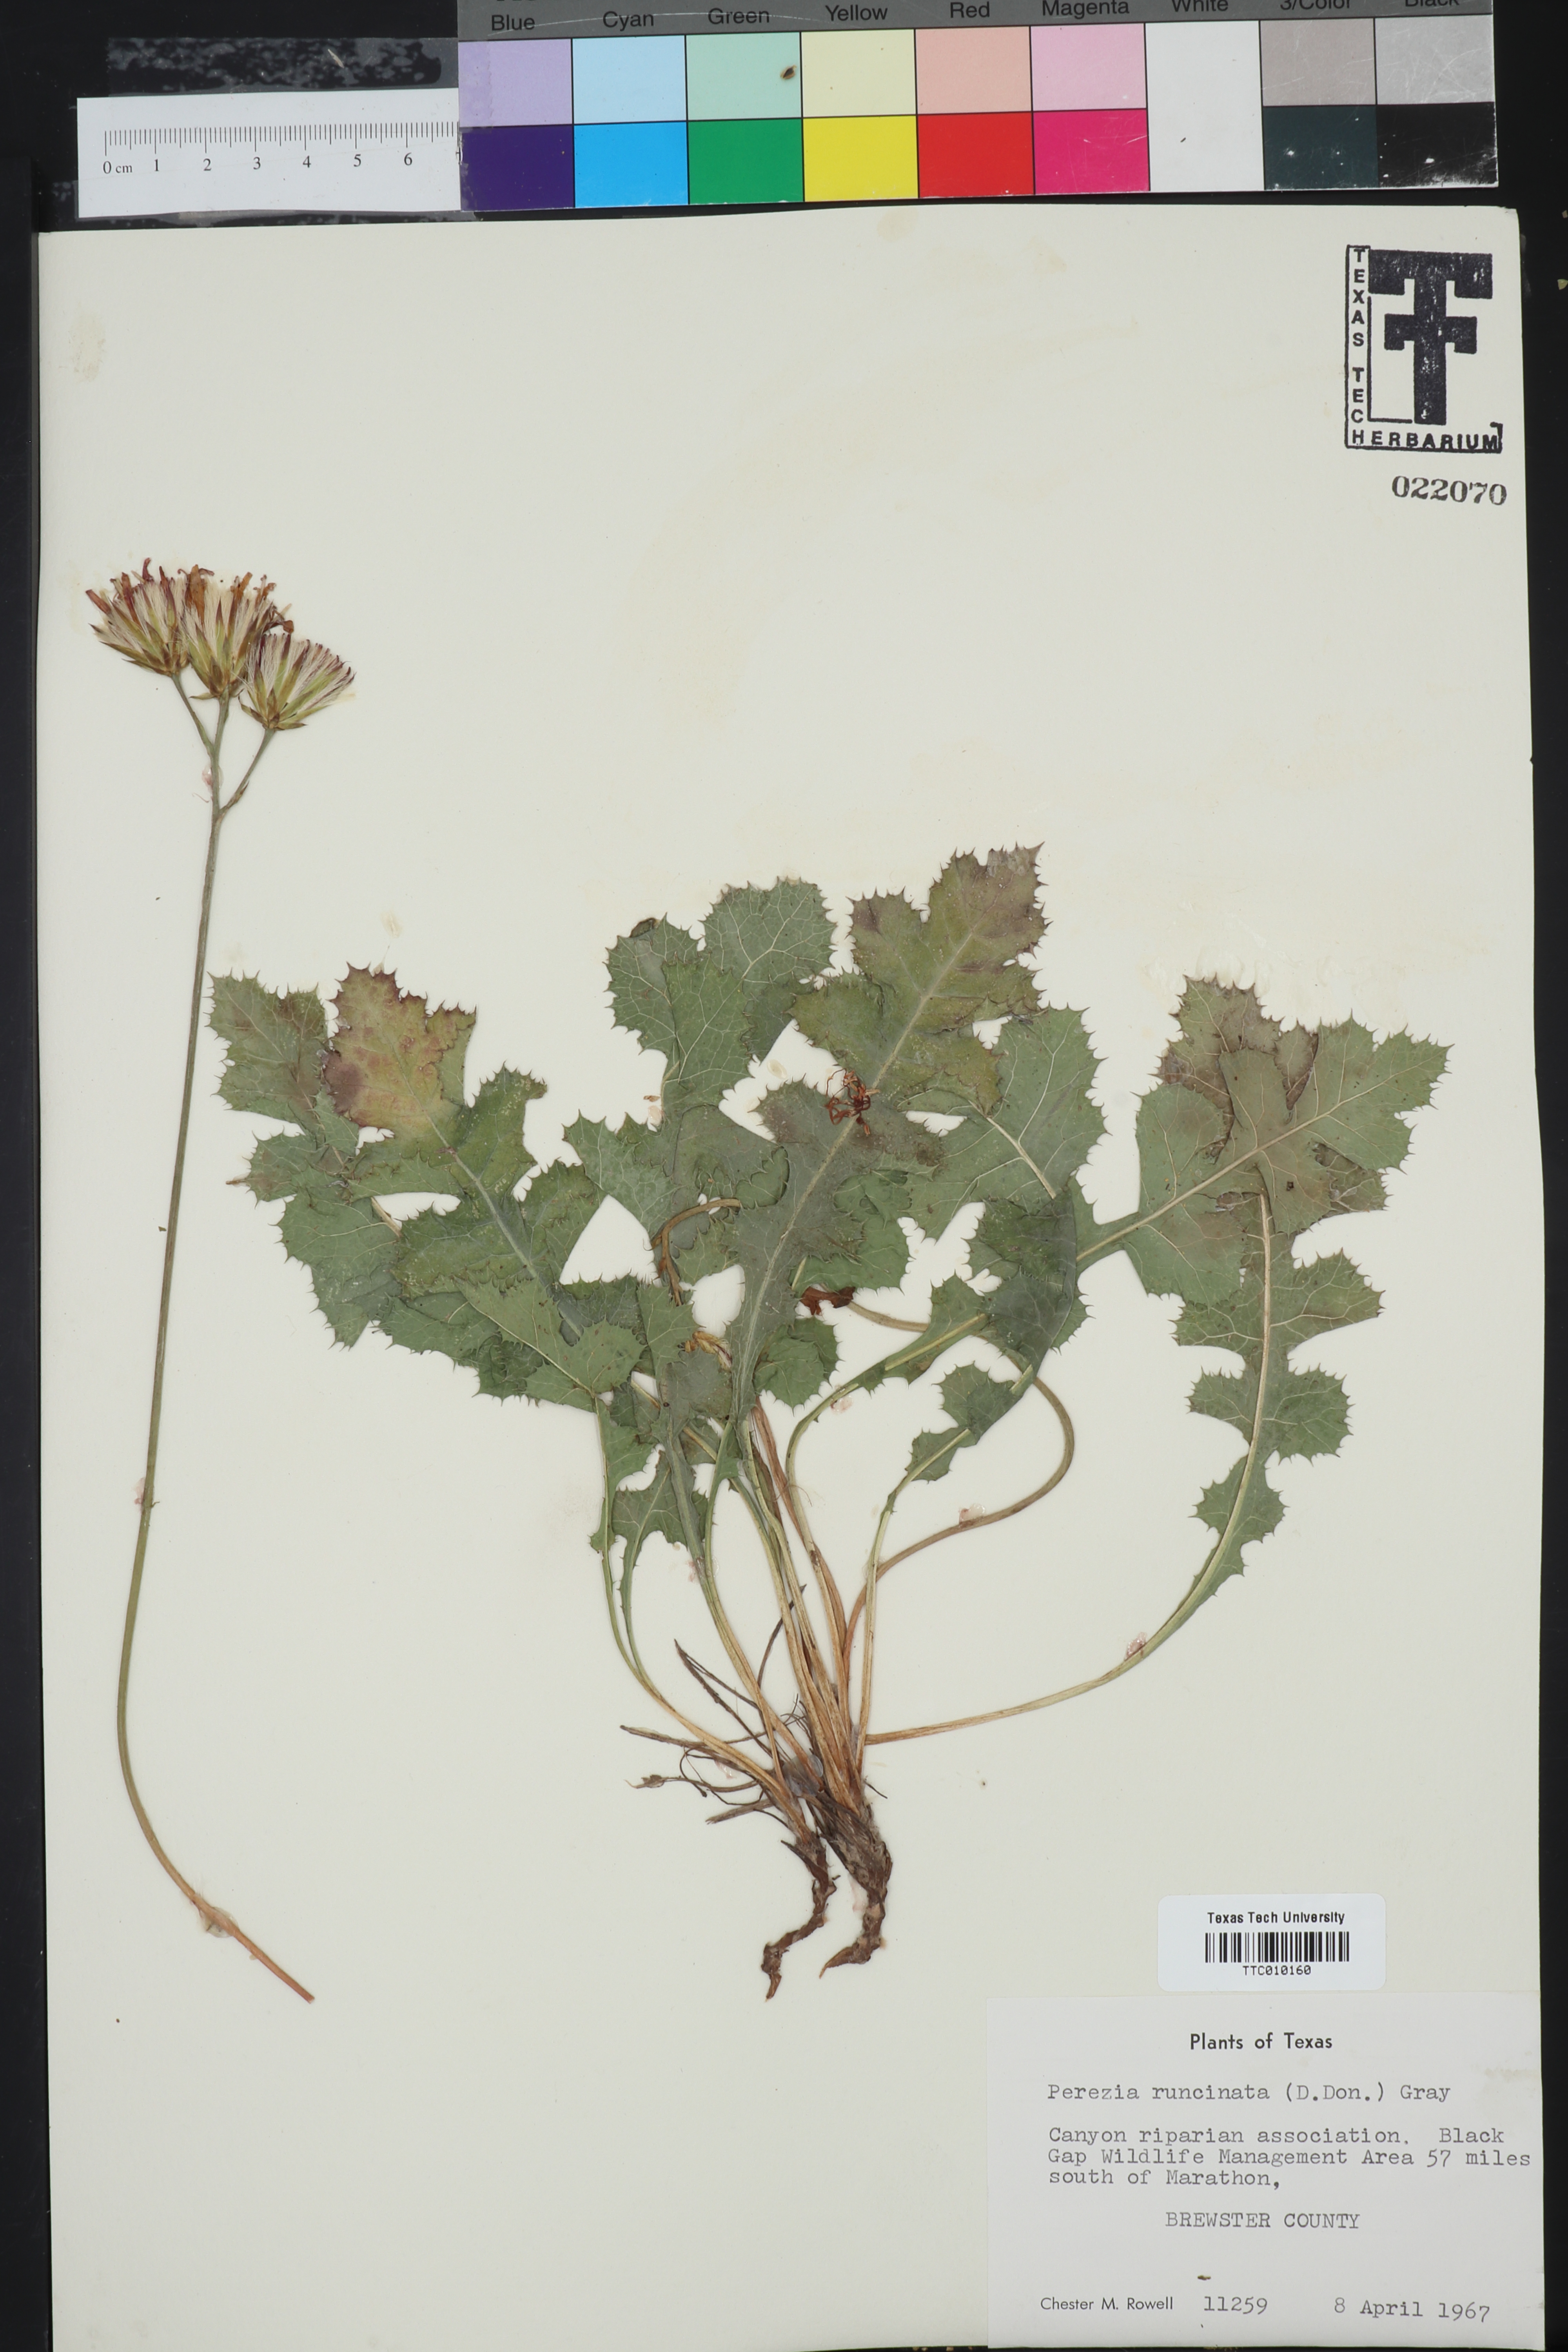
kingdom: Plantae
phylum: Tracheophyta
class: Magnoliopsida
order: Asterales
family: Asteraceae
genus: Acourtia
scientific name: Acourtia runcinata
